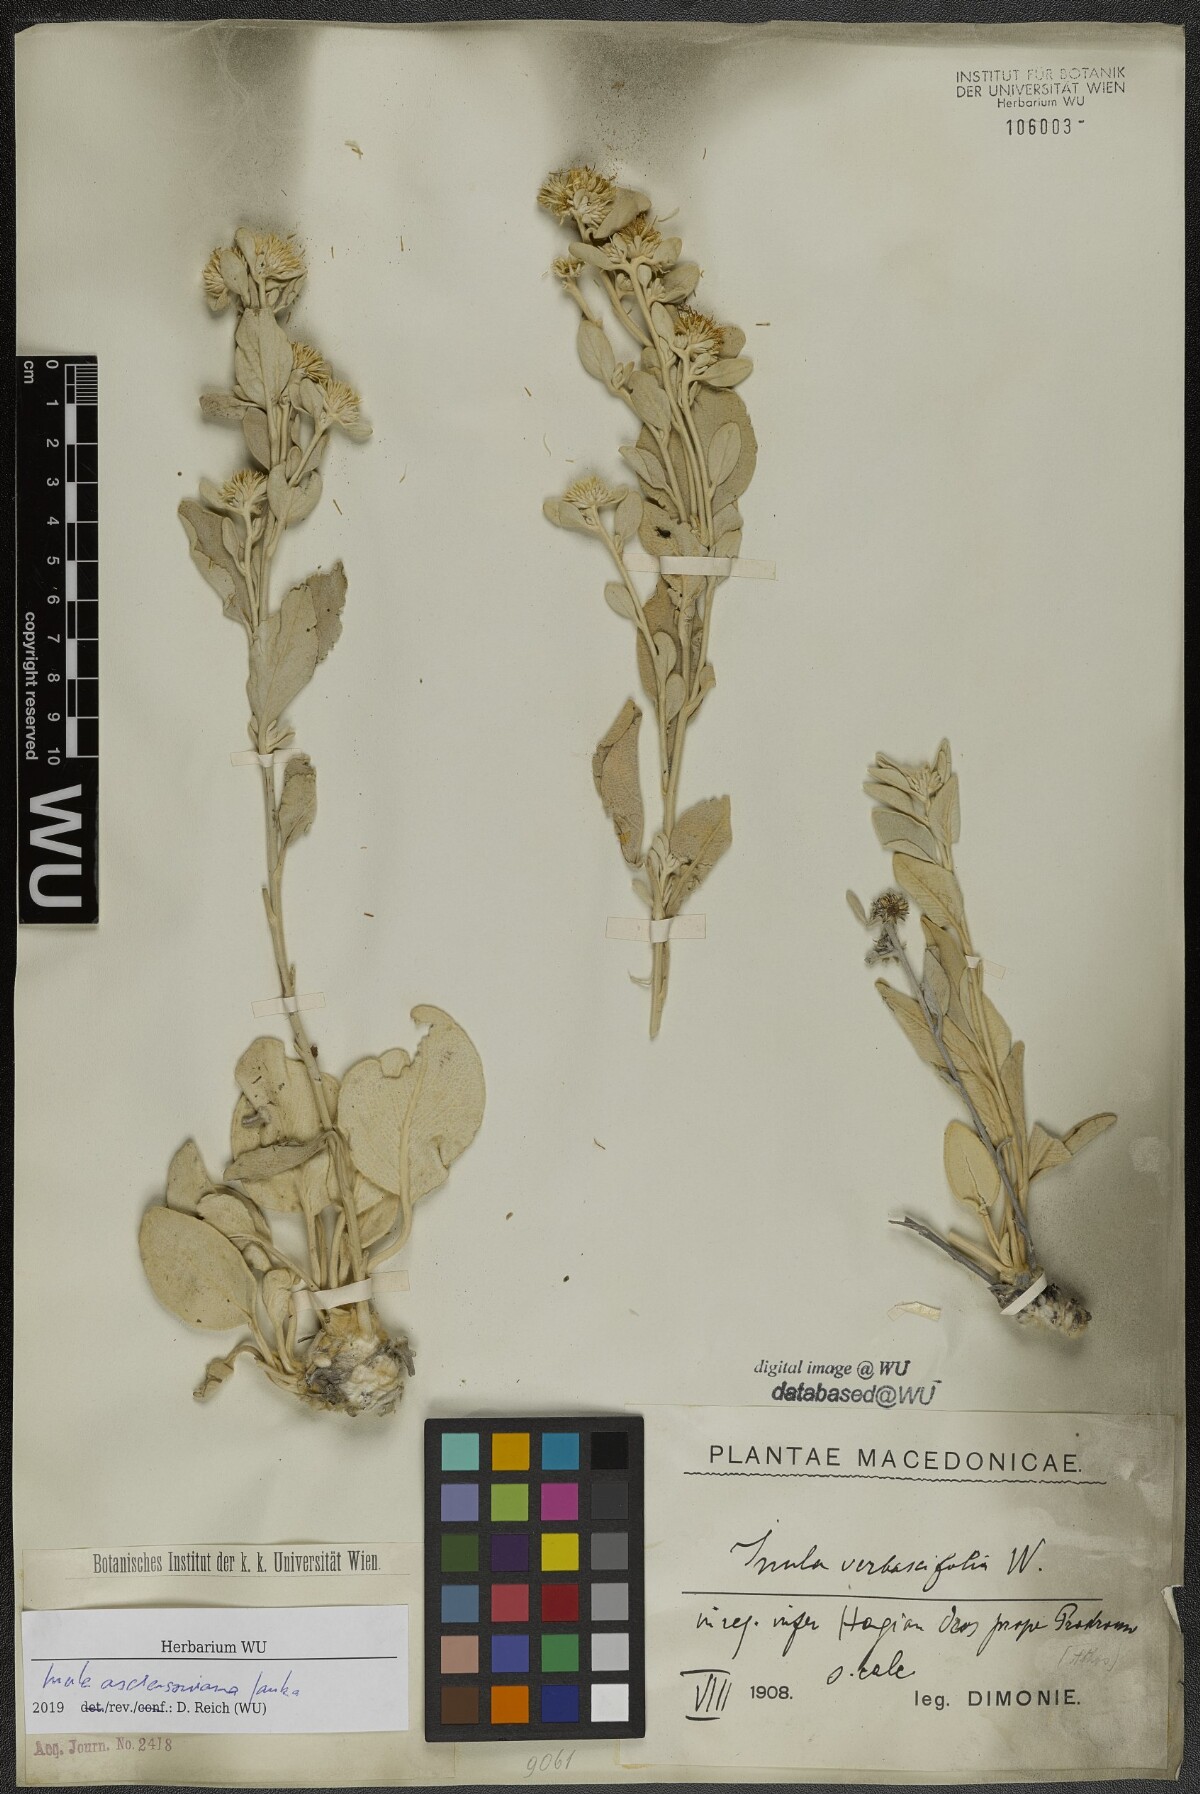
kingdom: Plantae
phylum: Tracheophyta
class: Magnoliopsida
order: Asterales
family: Asteraceae
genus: Pentanema
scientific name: Pentanema verbascifolium
